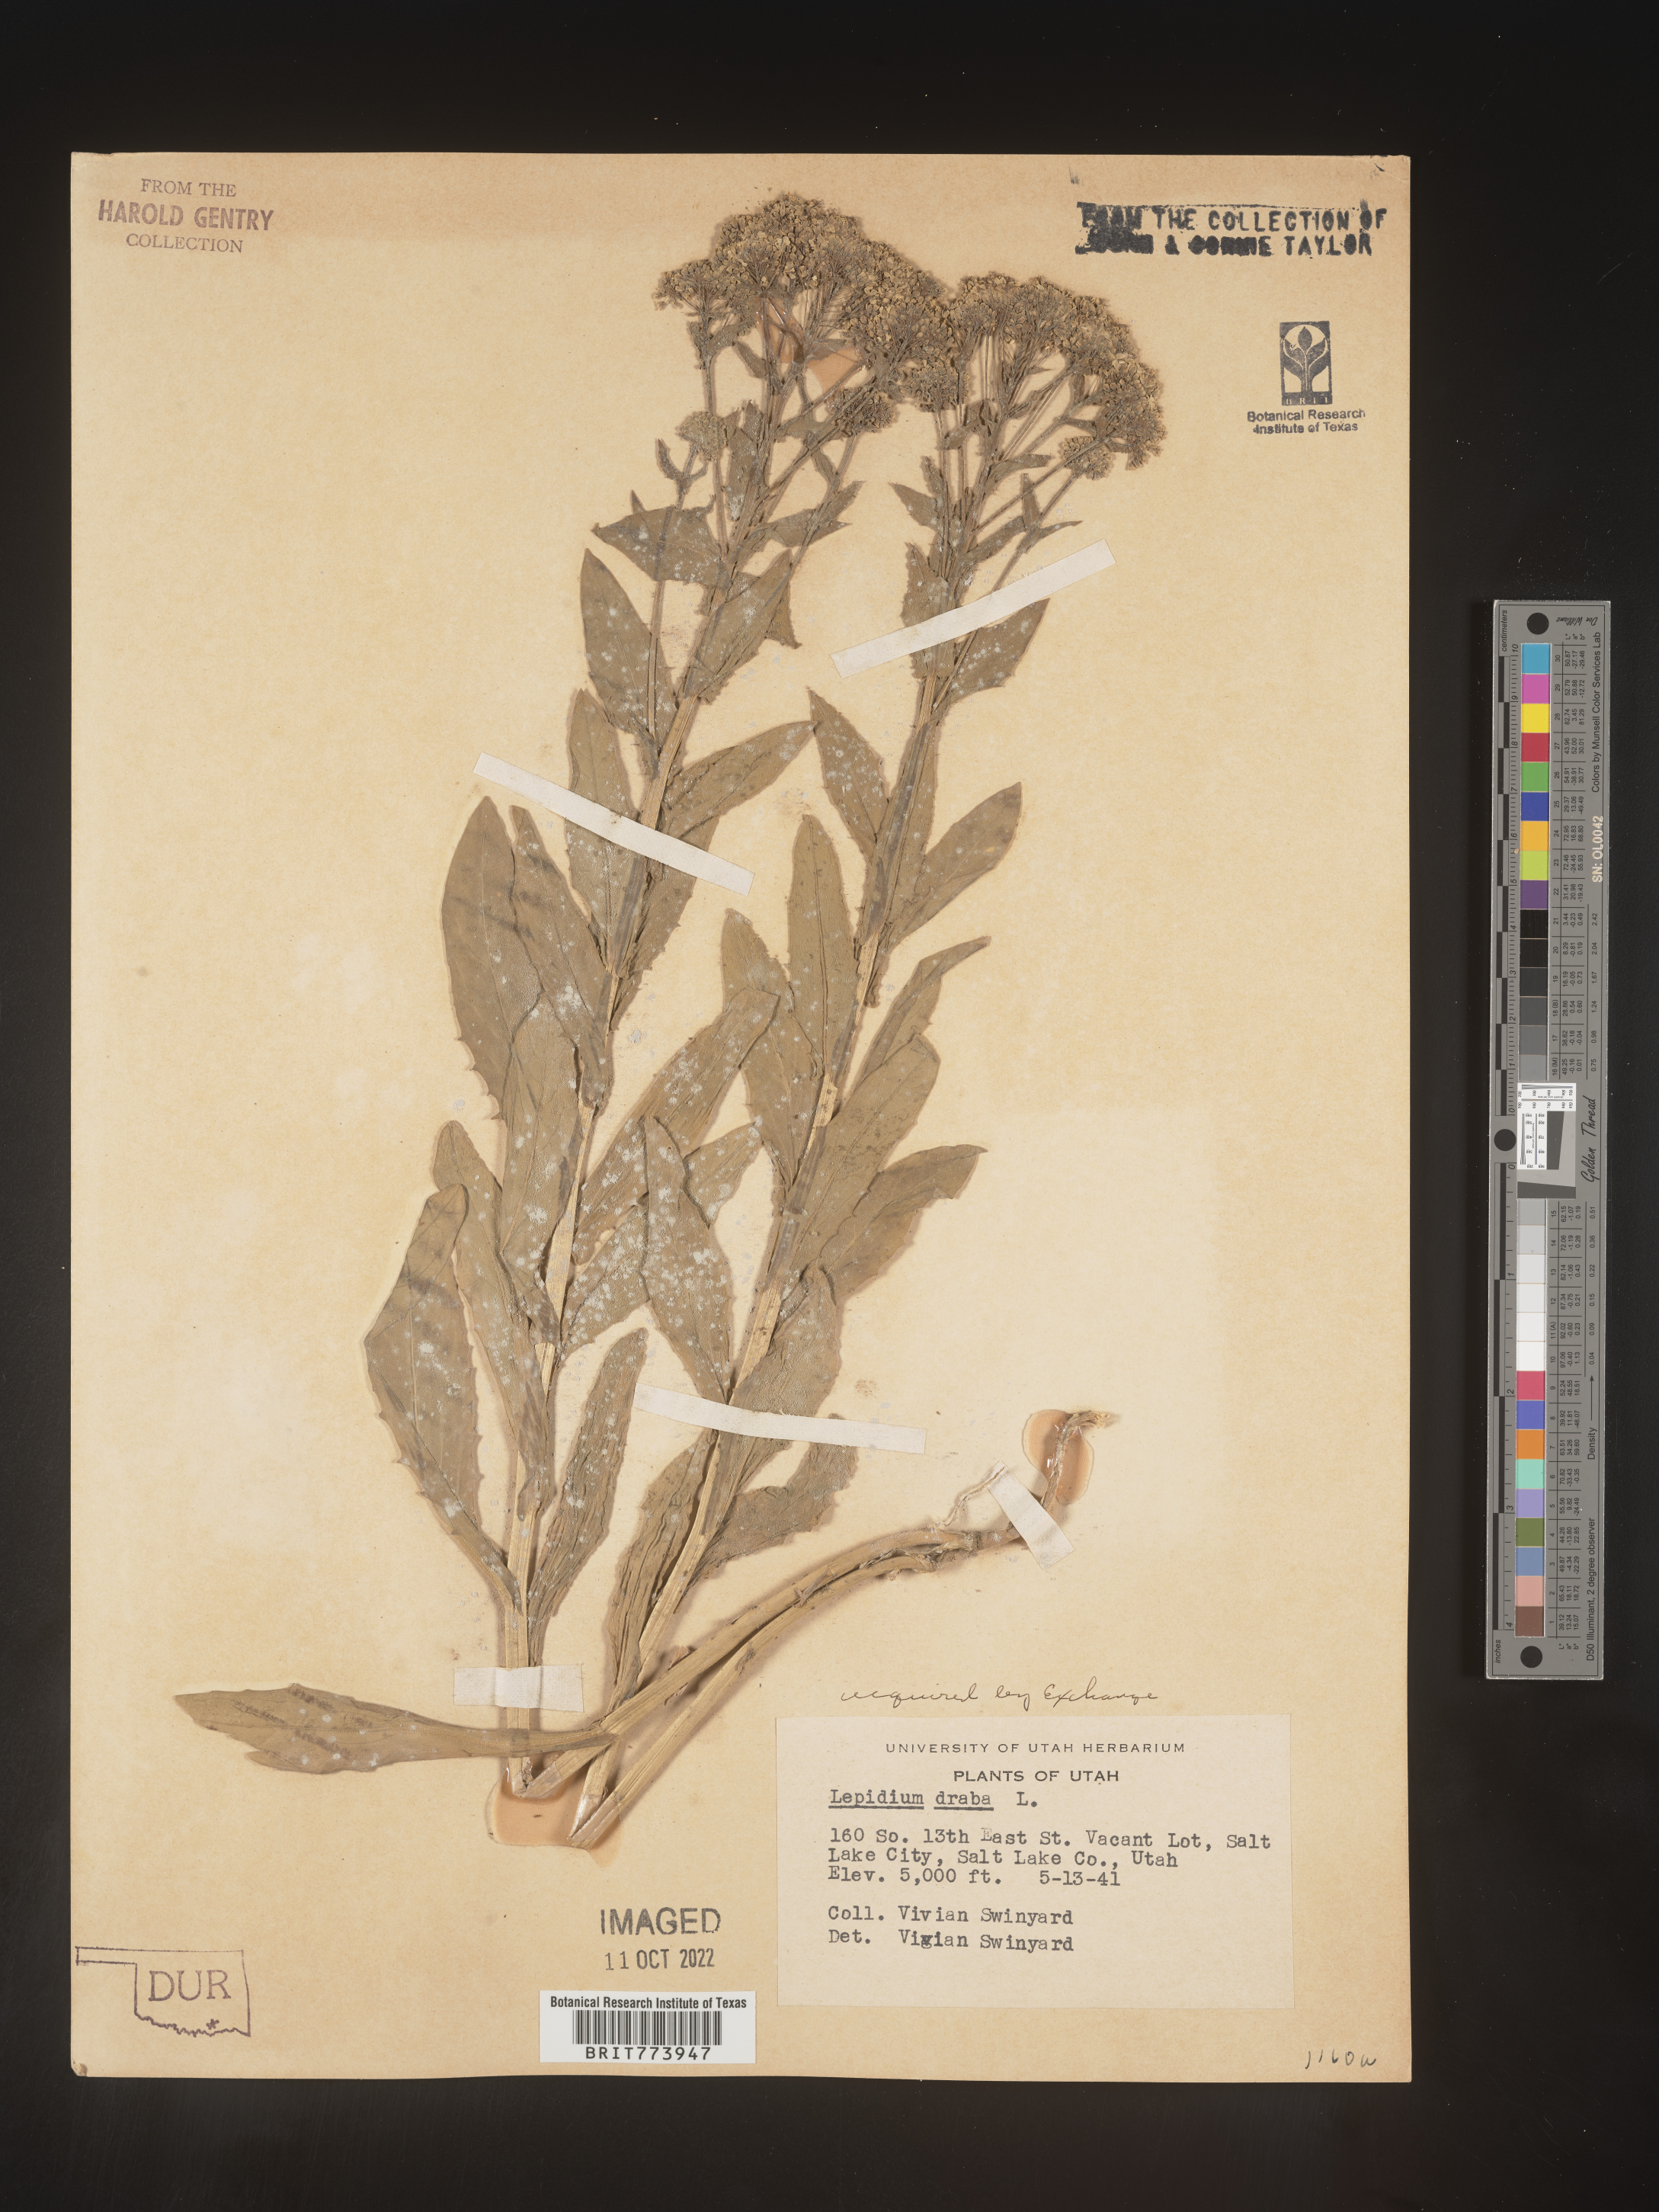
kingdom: Plantae
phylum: Tracheophyta
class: Magnoliopsida
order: Brassicales
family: Brassicaceae
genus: Lepidium
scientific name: Lepidium draba
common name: Hoary cress
